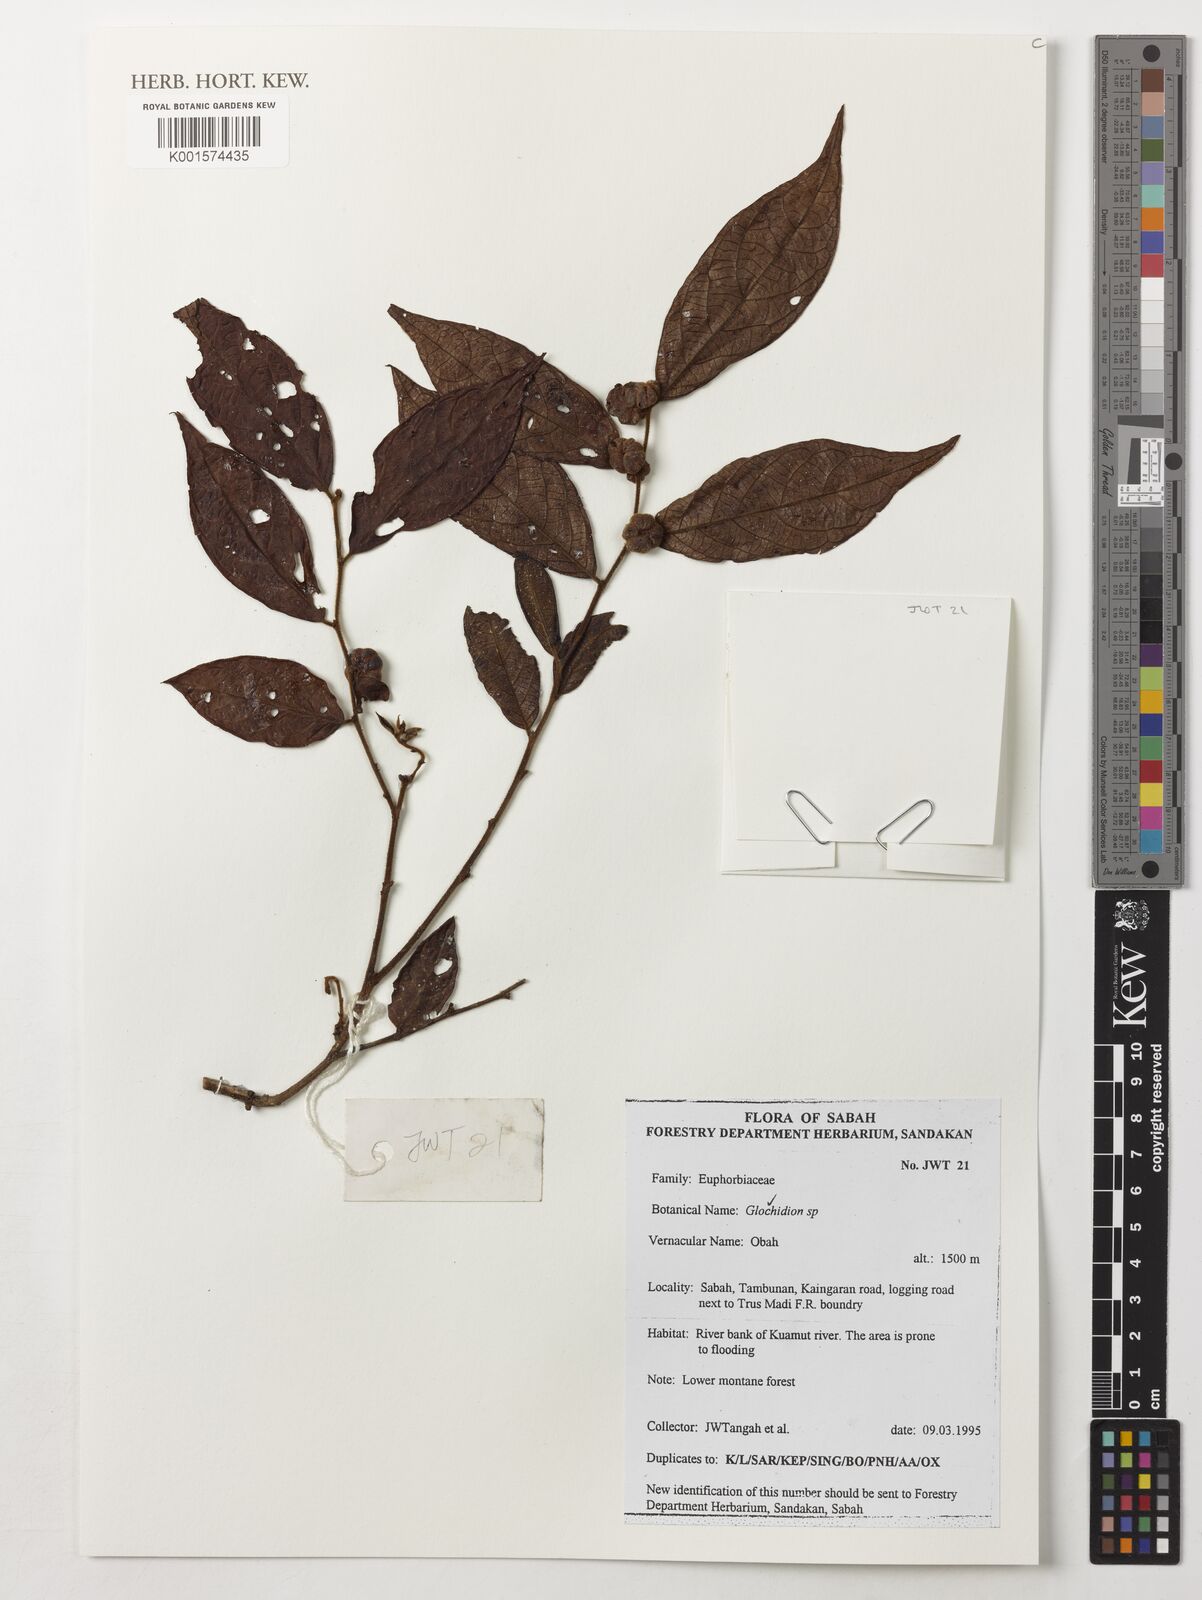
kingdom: Plantae
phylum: Tracheophyta
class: Magnoliopsida
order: Malpighiales
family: Phyllanthaceae
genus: Glochidion
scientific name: Glochidion
